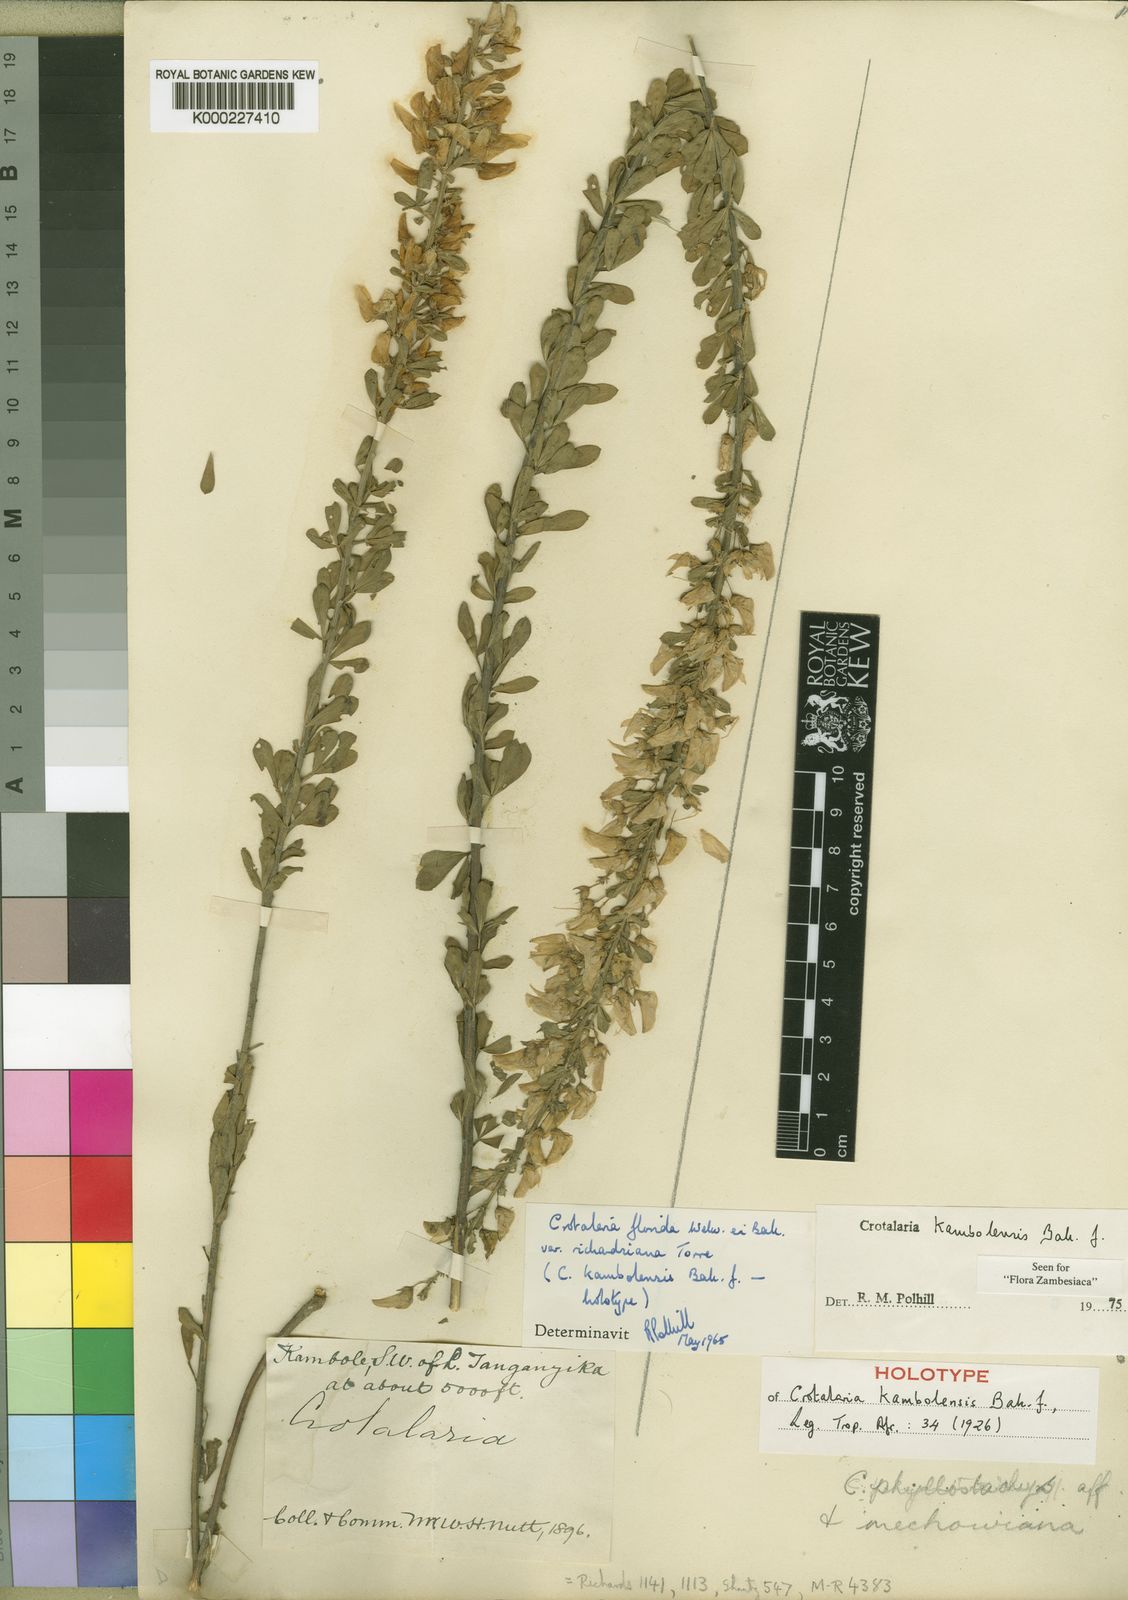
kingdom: Plantae
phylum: Tracheophyta
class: Magnoliopsida
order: Fabales
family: Fabaceae
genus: Crotalaria
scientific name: Crotalaria kambolensis
